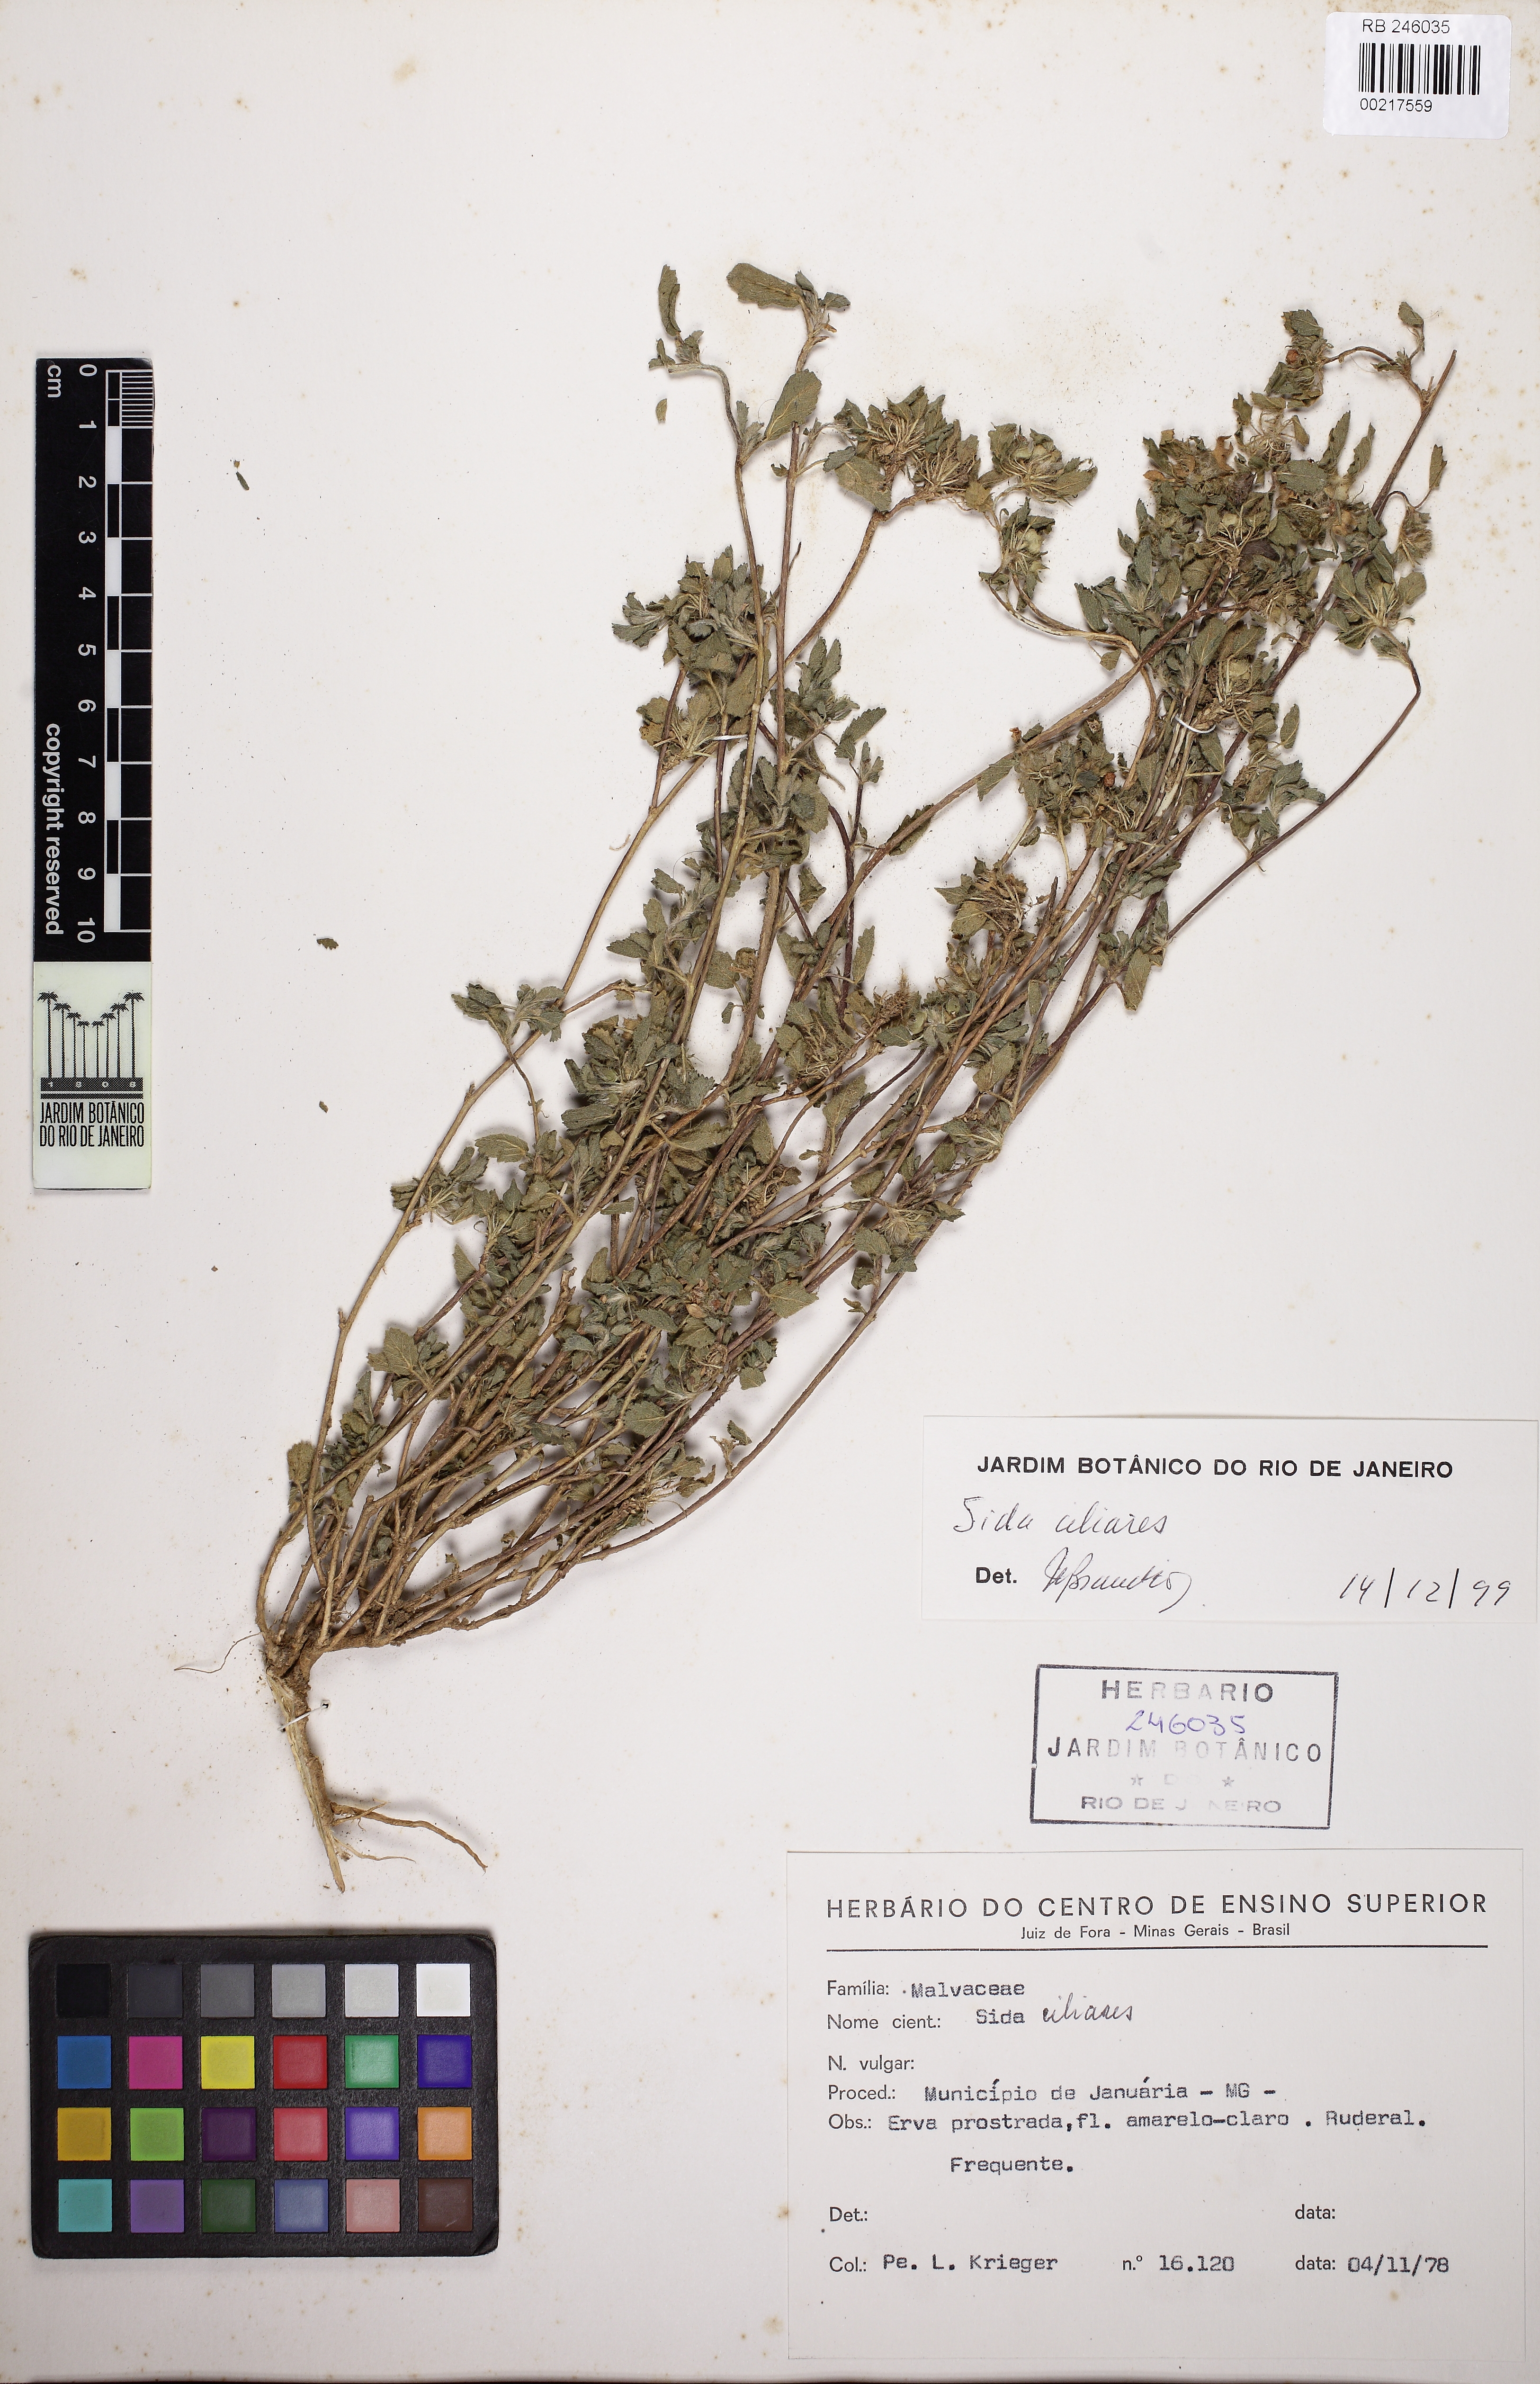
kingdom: Plantae
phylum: Tracheophyta
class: Magnoliopsida
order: Malvales
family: Malvaceae
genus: Sida
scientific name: Sida ciliaris
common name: Bracted fanpetals
